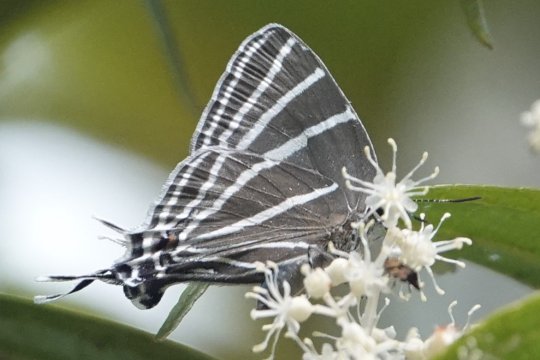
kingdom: Animalia
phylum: Arthropoda
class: Insecta
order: Lepidoptera
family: Lycaenidae
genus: Laothus
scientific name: Laothus barajo
